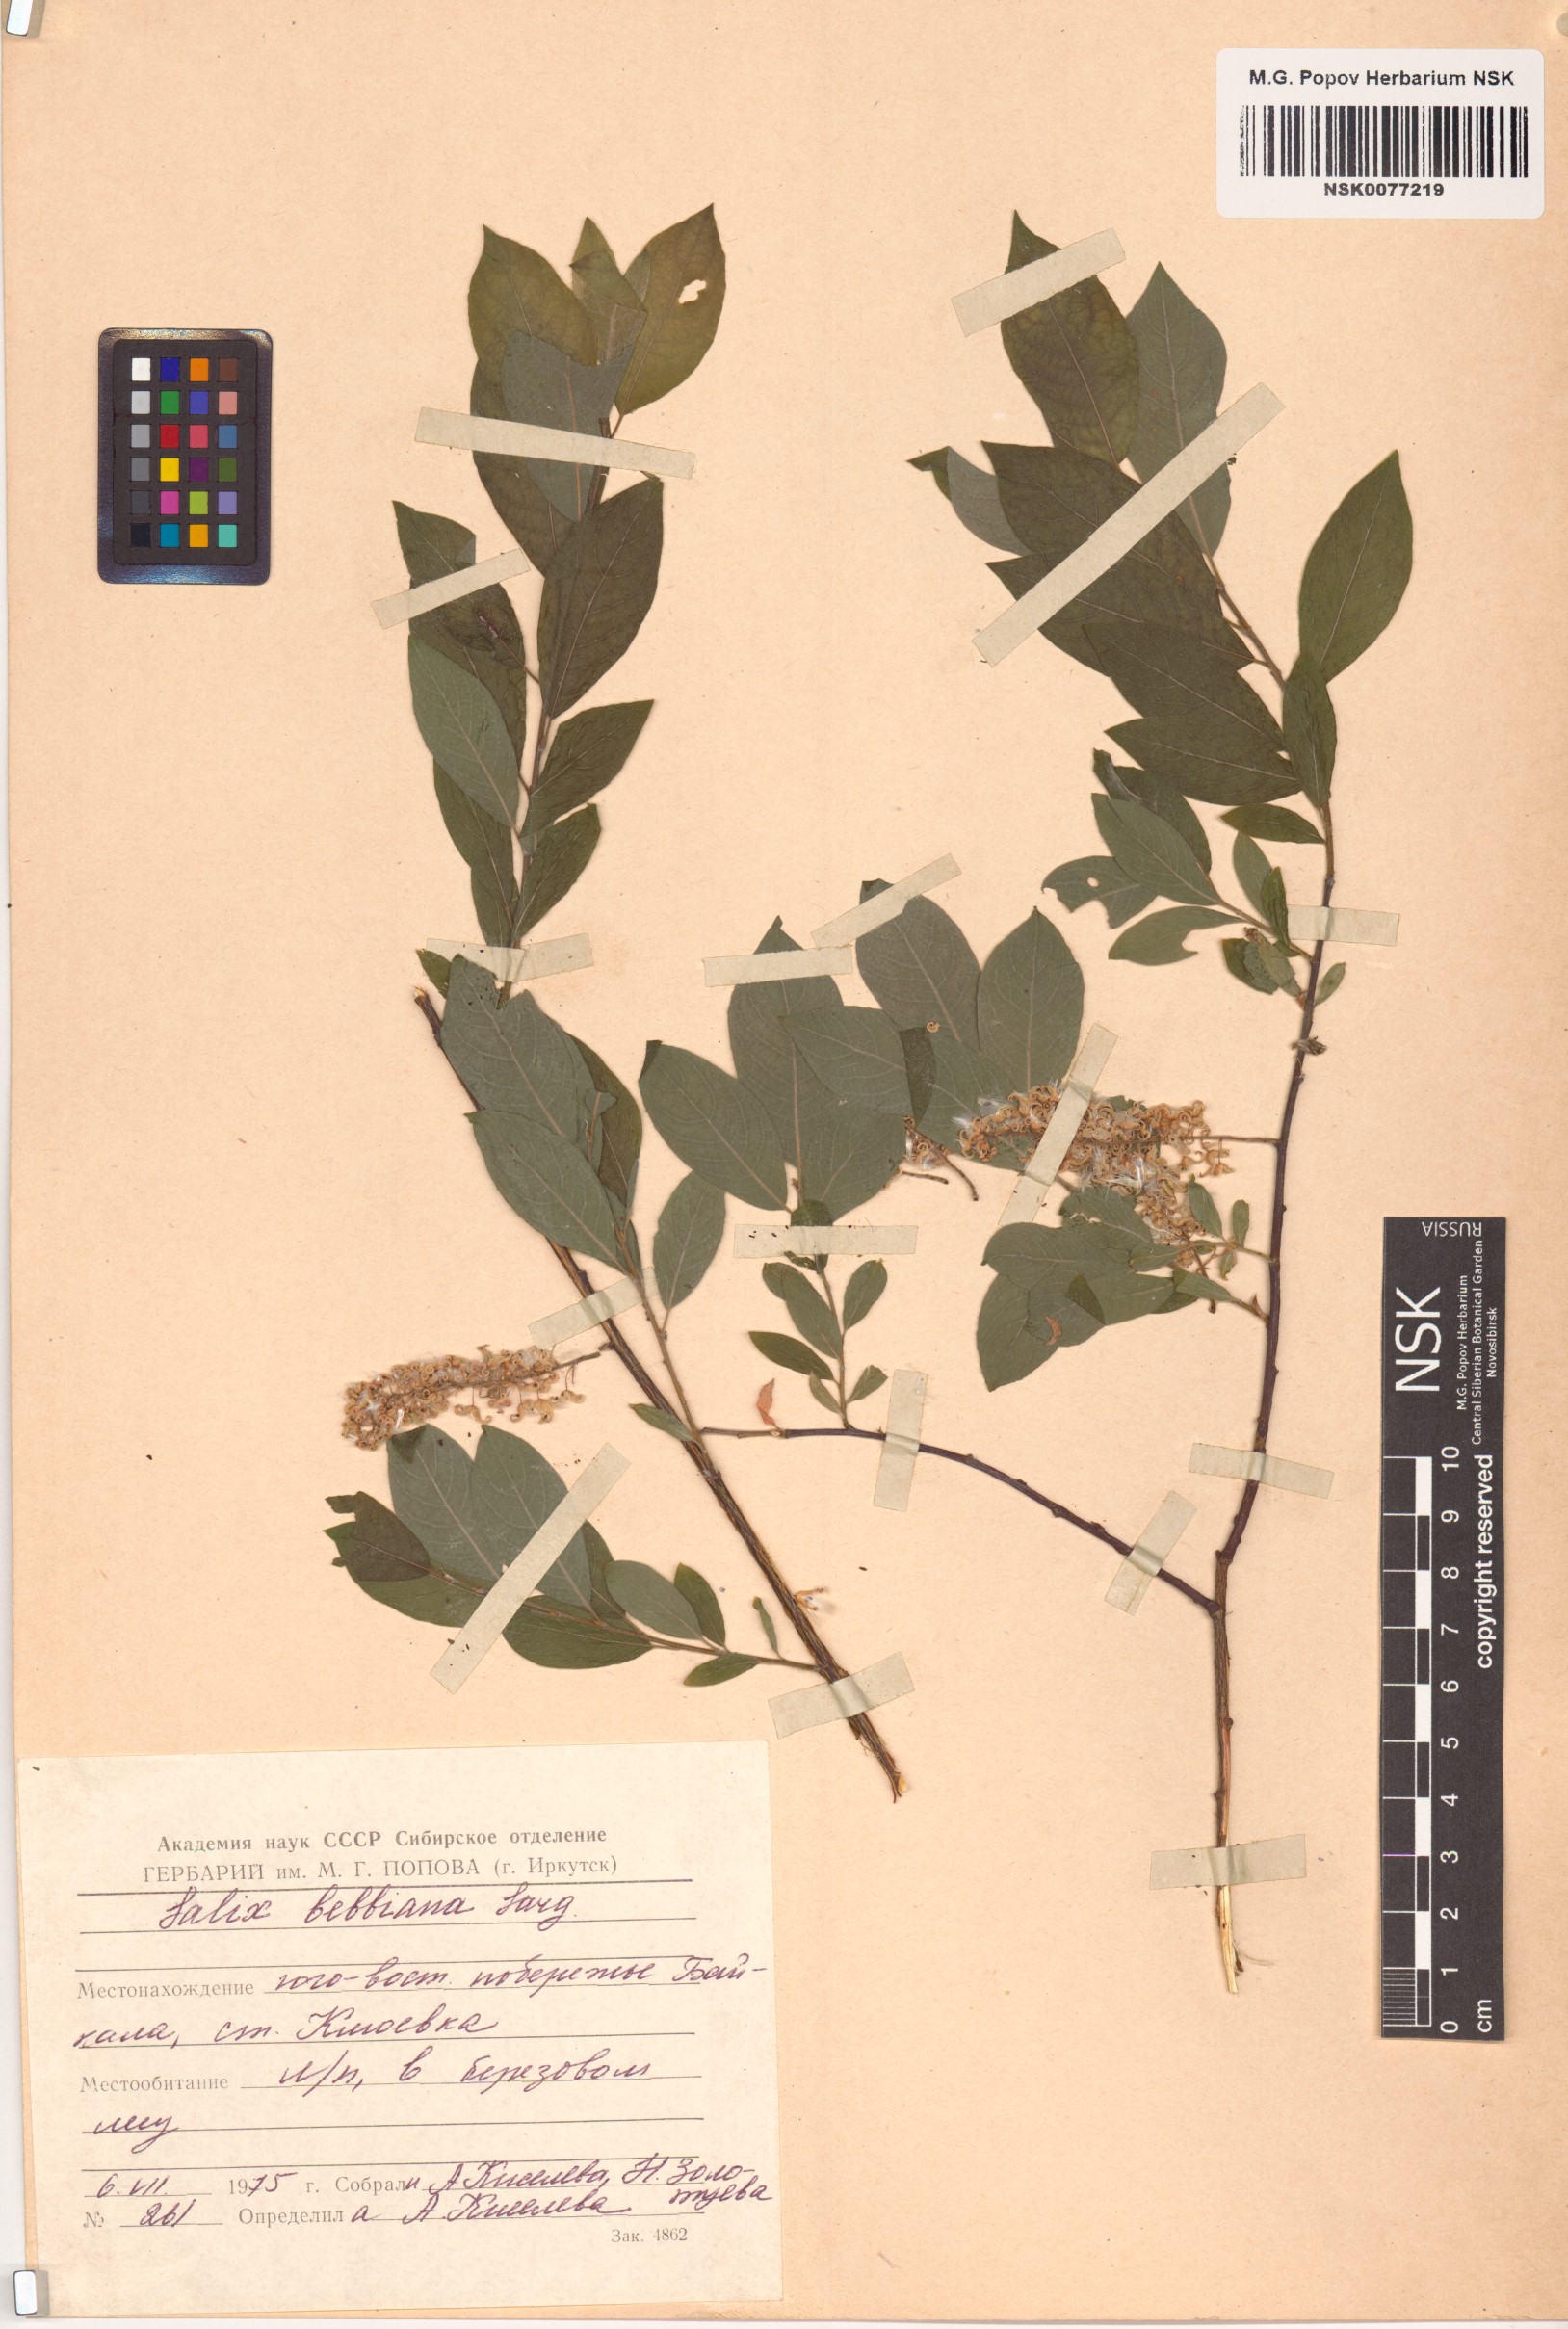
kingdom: Plantae
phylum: Tracheophyta
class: Magnoliopsida
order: Malpighiales
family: Salicaceae
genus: Salix
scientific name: Salix bebbiana
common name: Bebb's willow
